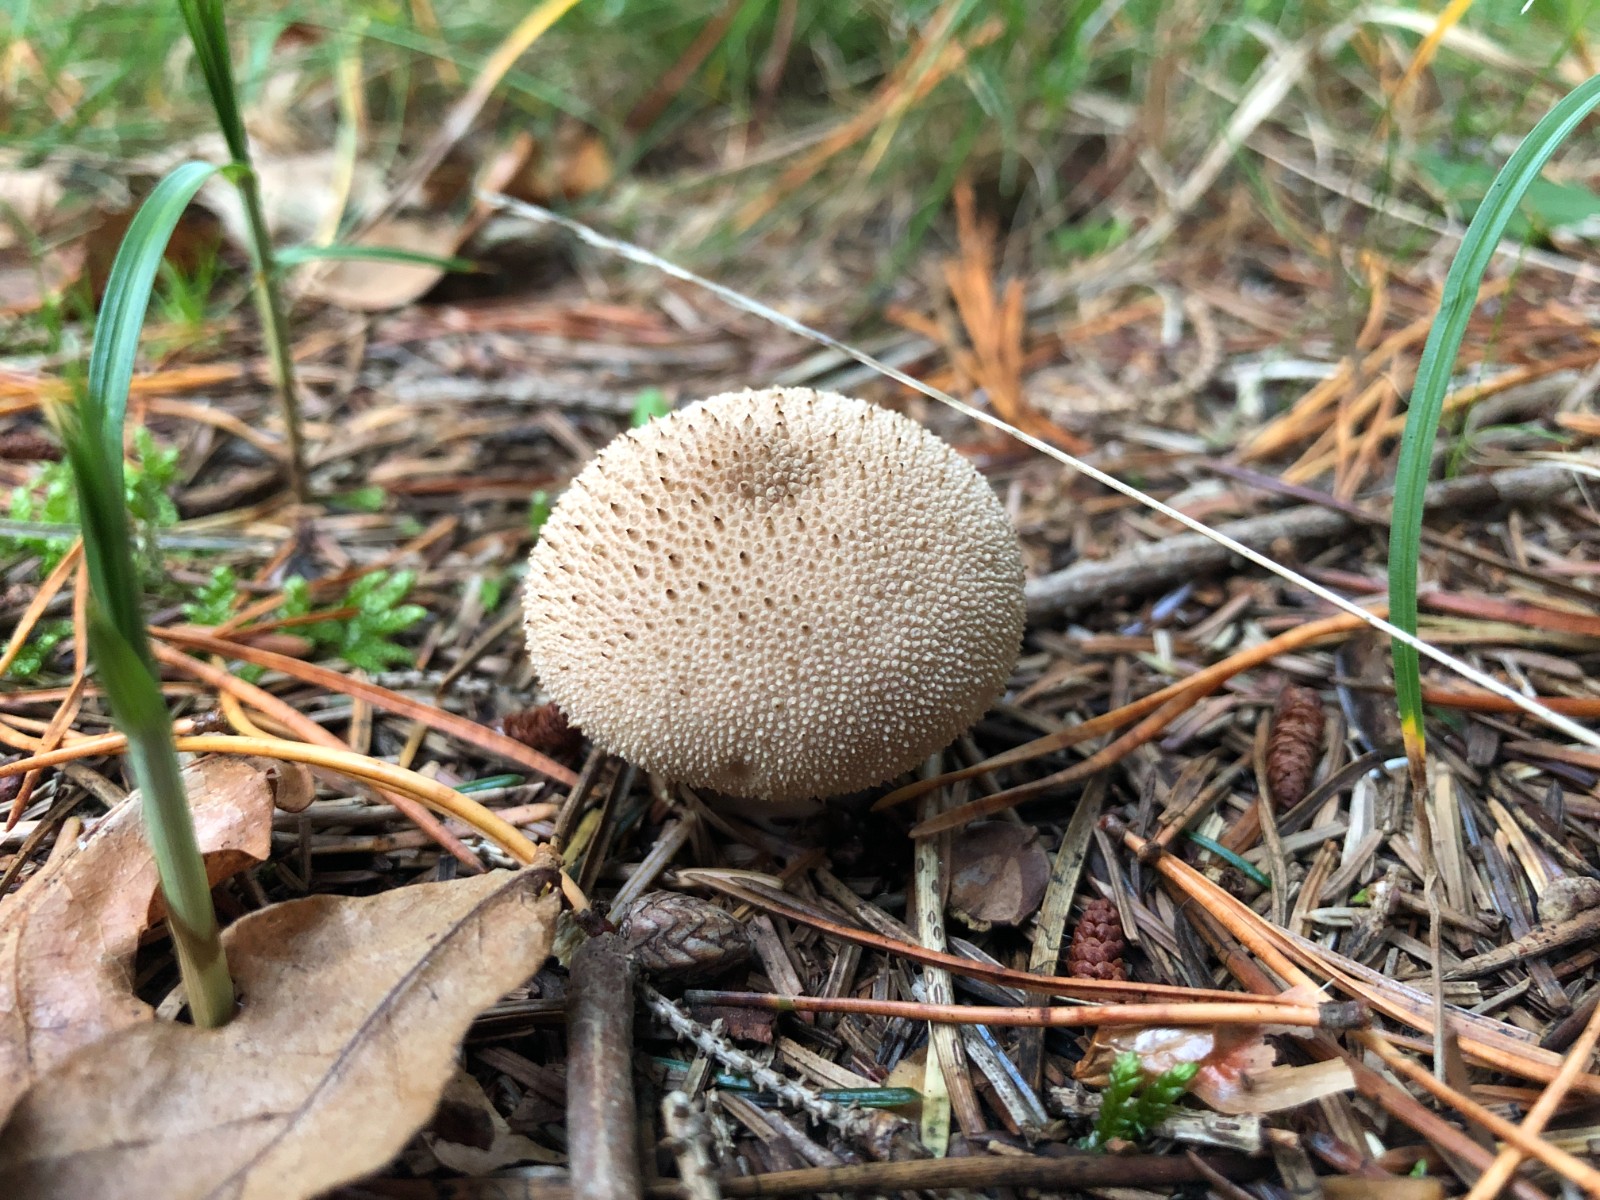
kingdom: Fungi
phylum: Basidiomycota
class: Agaricomycetes
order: Agaricales
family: Lycoperdaceae
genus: Lycoperdon
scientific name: Lycoperdon perlatum
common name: krystal-støvbold
